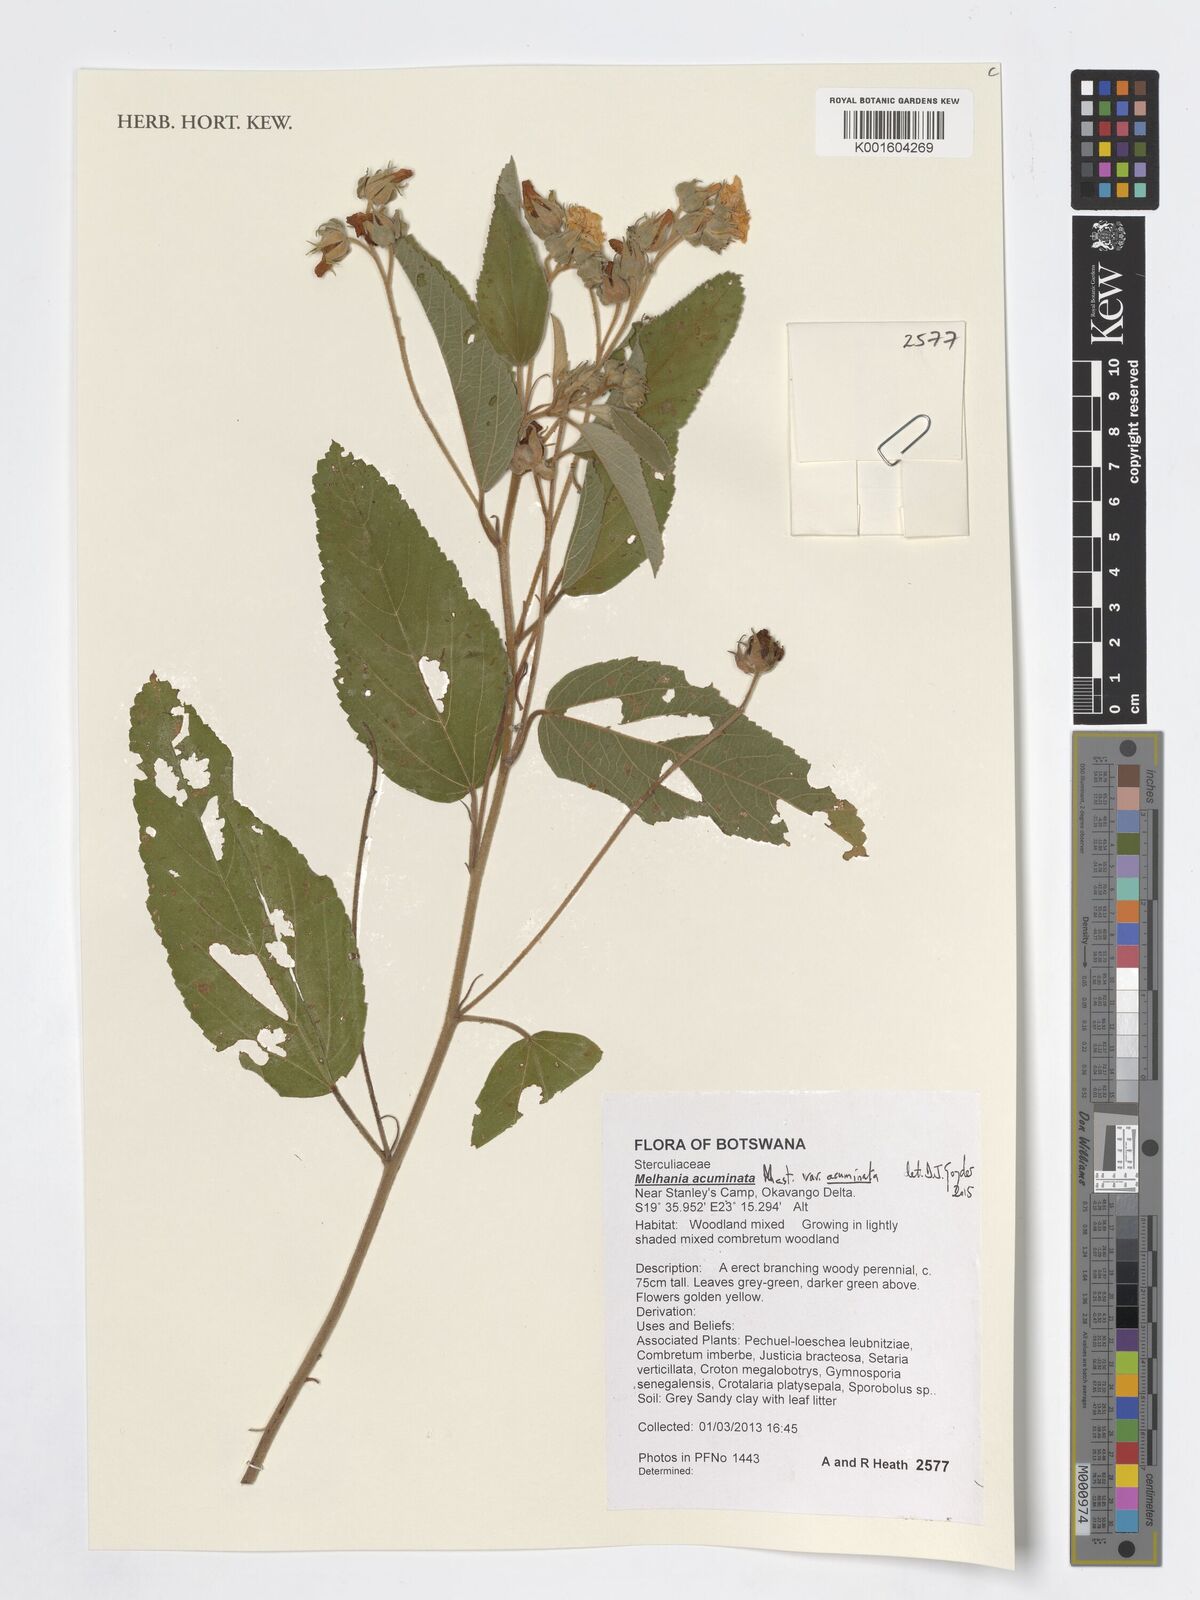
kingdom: Plantae
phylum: Tracheophyta
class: Magnoliopsida
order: Malvales
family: Malvaceae
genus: Melhania
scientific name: Melhania acuminata
